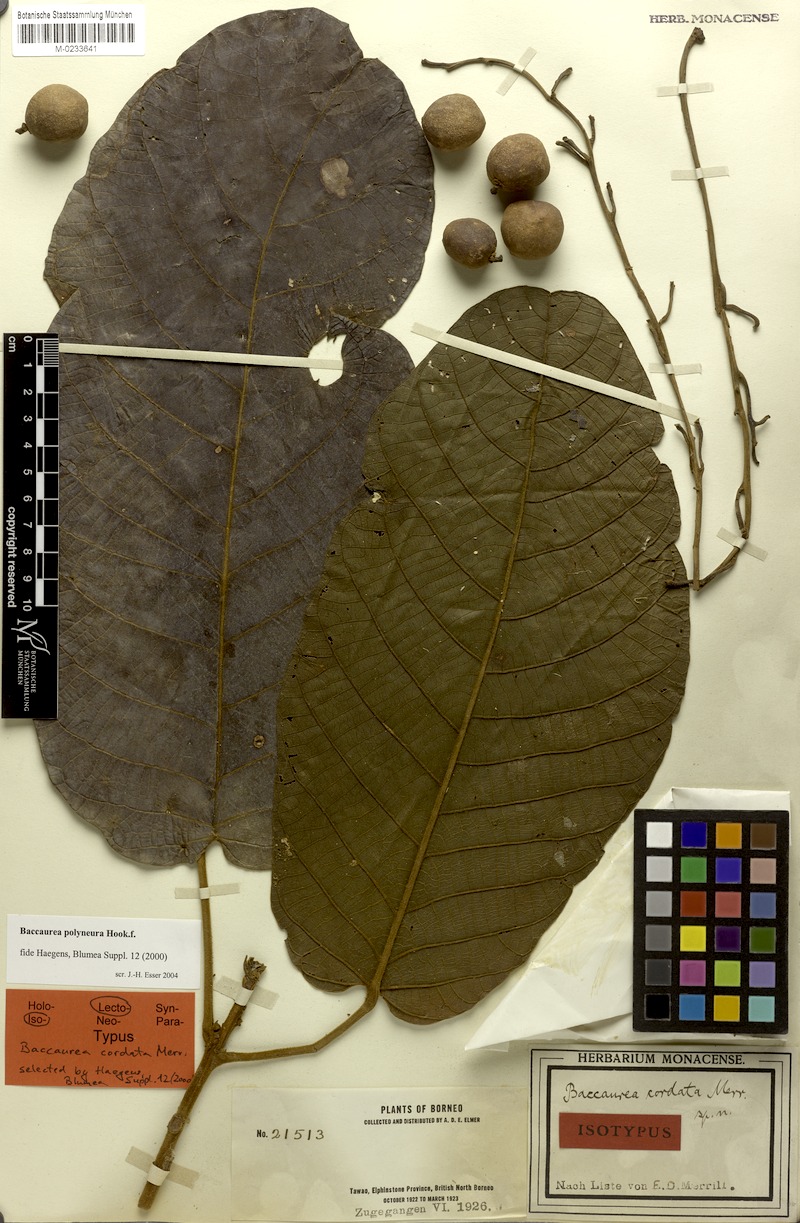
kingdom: Plantae
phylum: Tracheophyta
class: Magnoliopsida
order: Malpighiales
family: Phyllanthaceae
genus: Baccaurea
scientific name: Baccaurea polyneura
